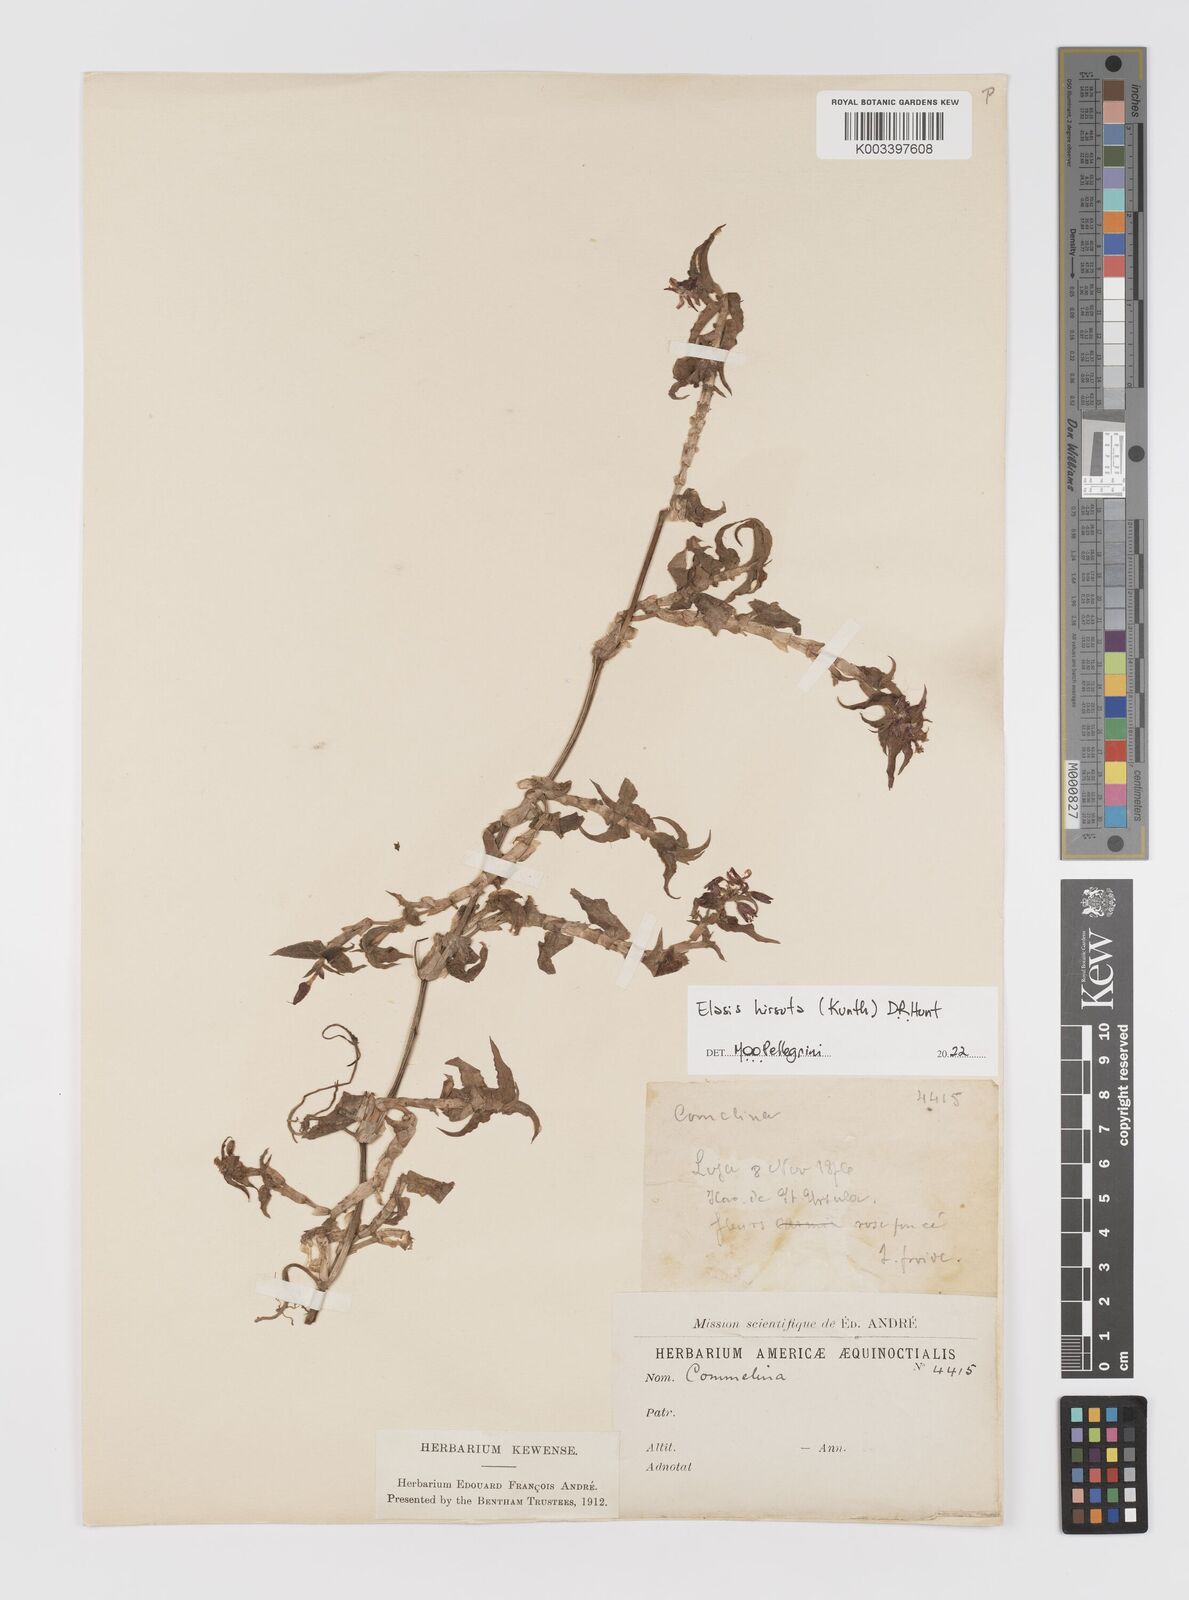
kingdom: Plantae
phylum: Tracheophyta
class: Liliopsida
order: Commelinales
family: Commelinaceae
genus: Elasis
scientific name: Elasis hirsuta
